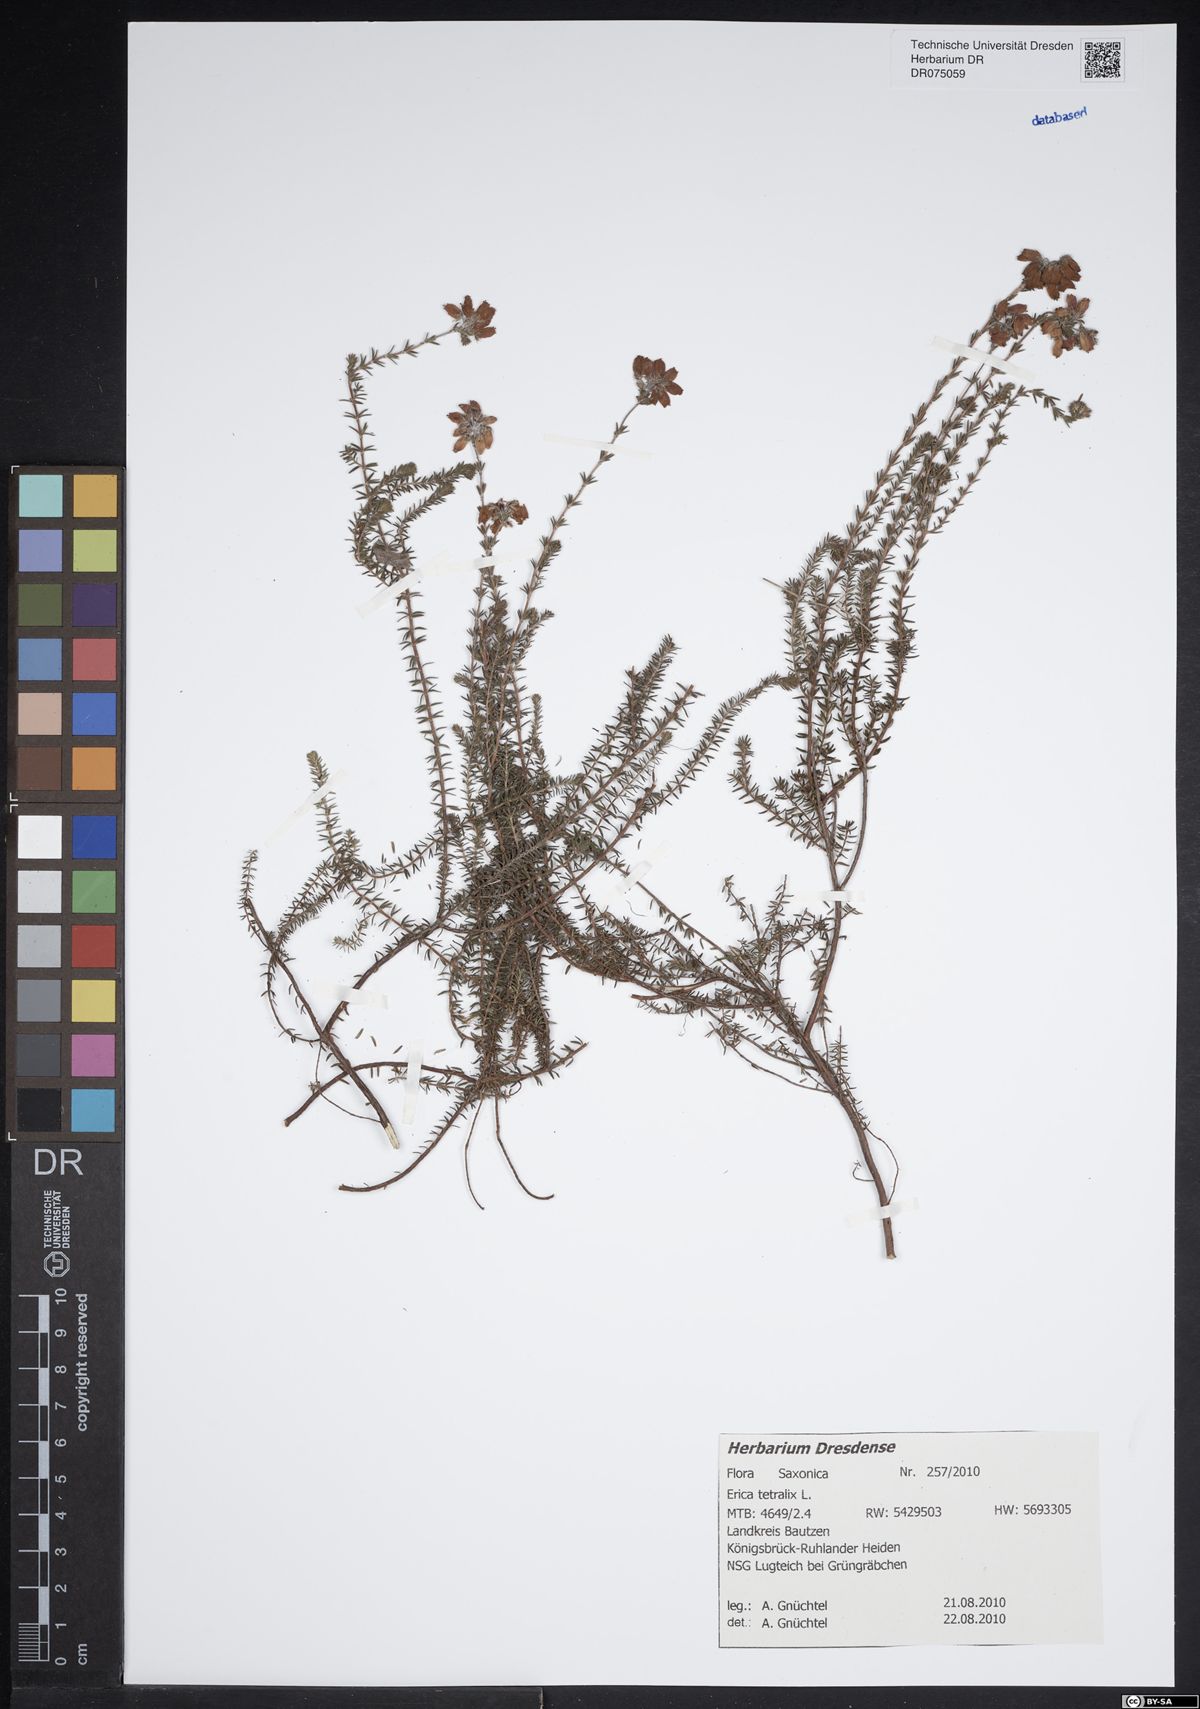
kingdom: Plantae
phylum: Tracheophyta
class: Magnoliopsida
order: Ericales
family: Ericaceae
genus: Erica
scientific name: Erica tetralix
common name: Cross-leaved heath
